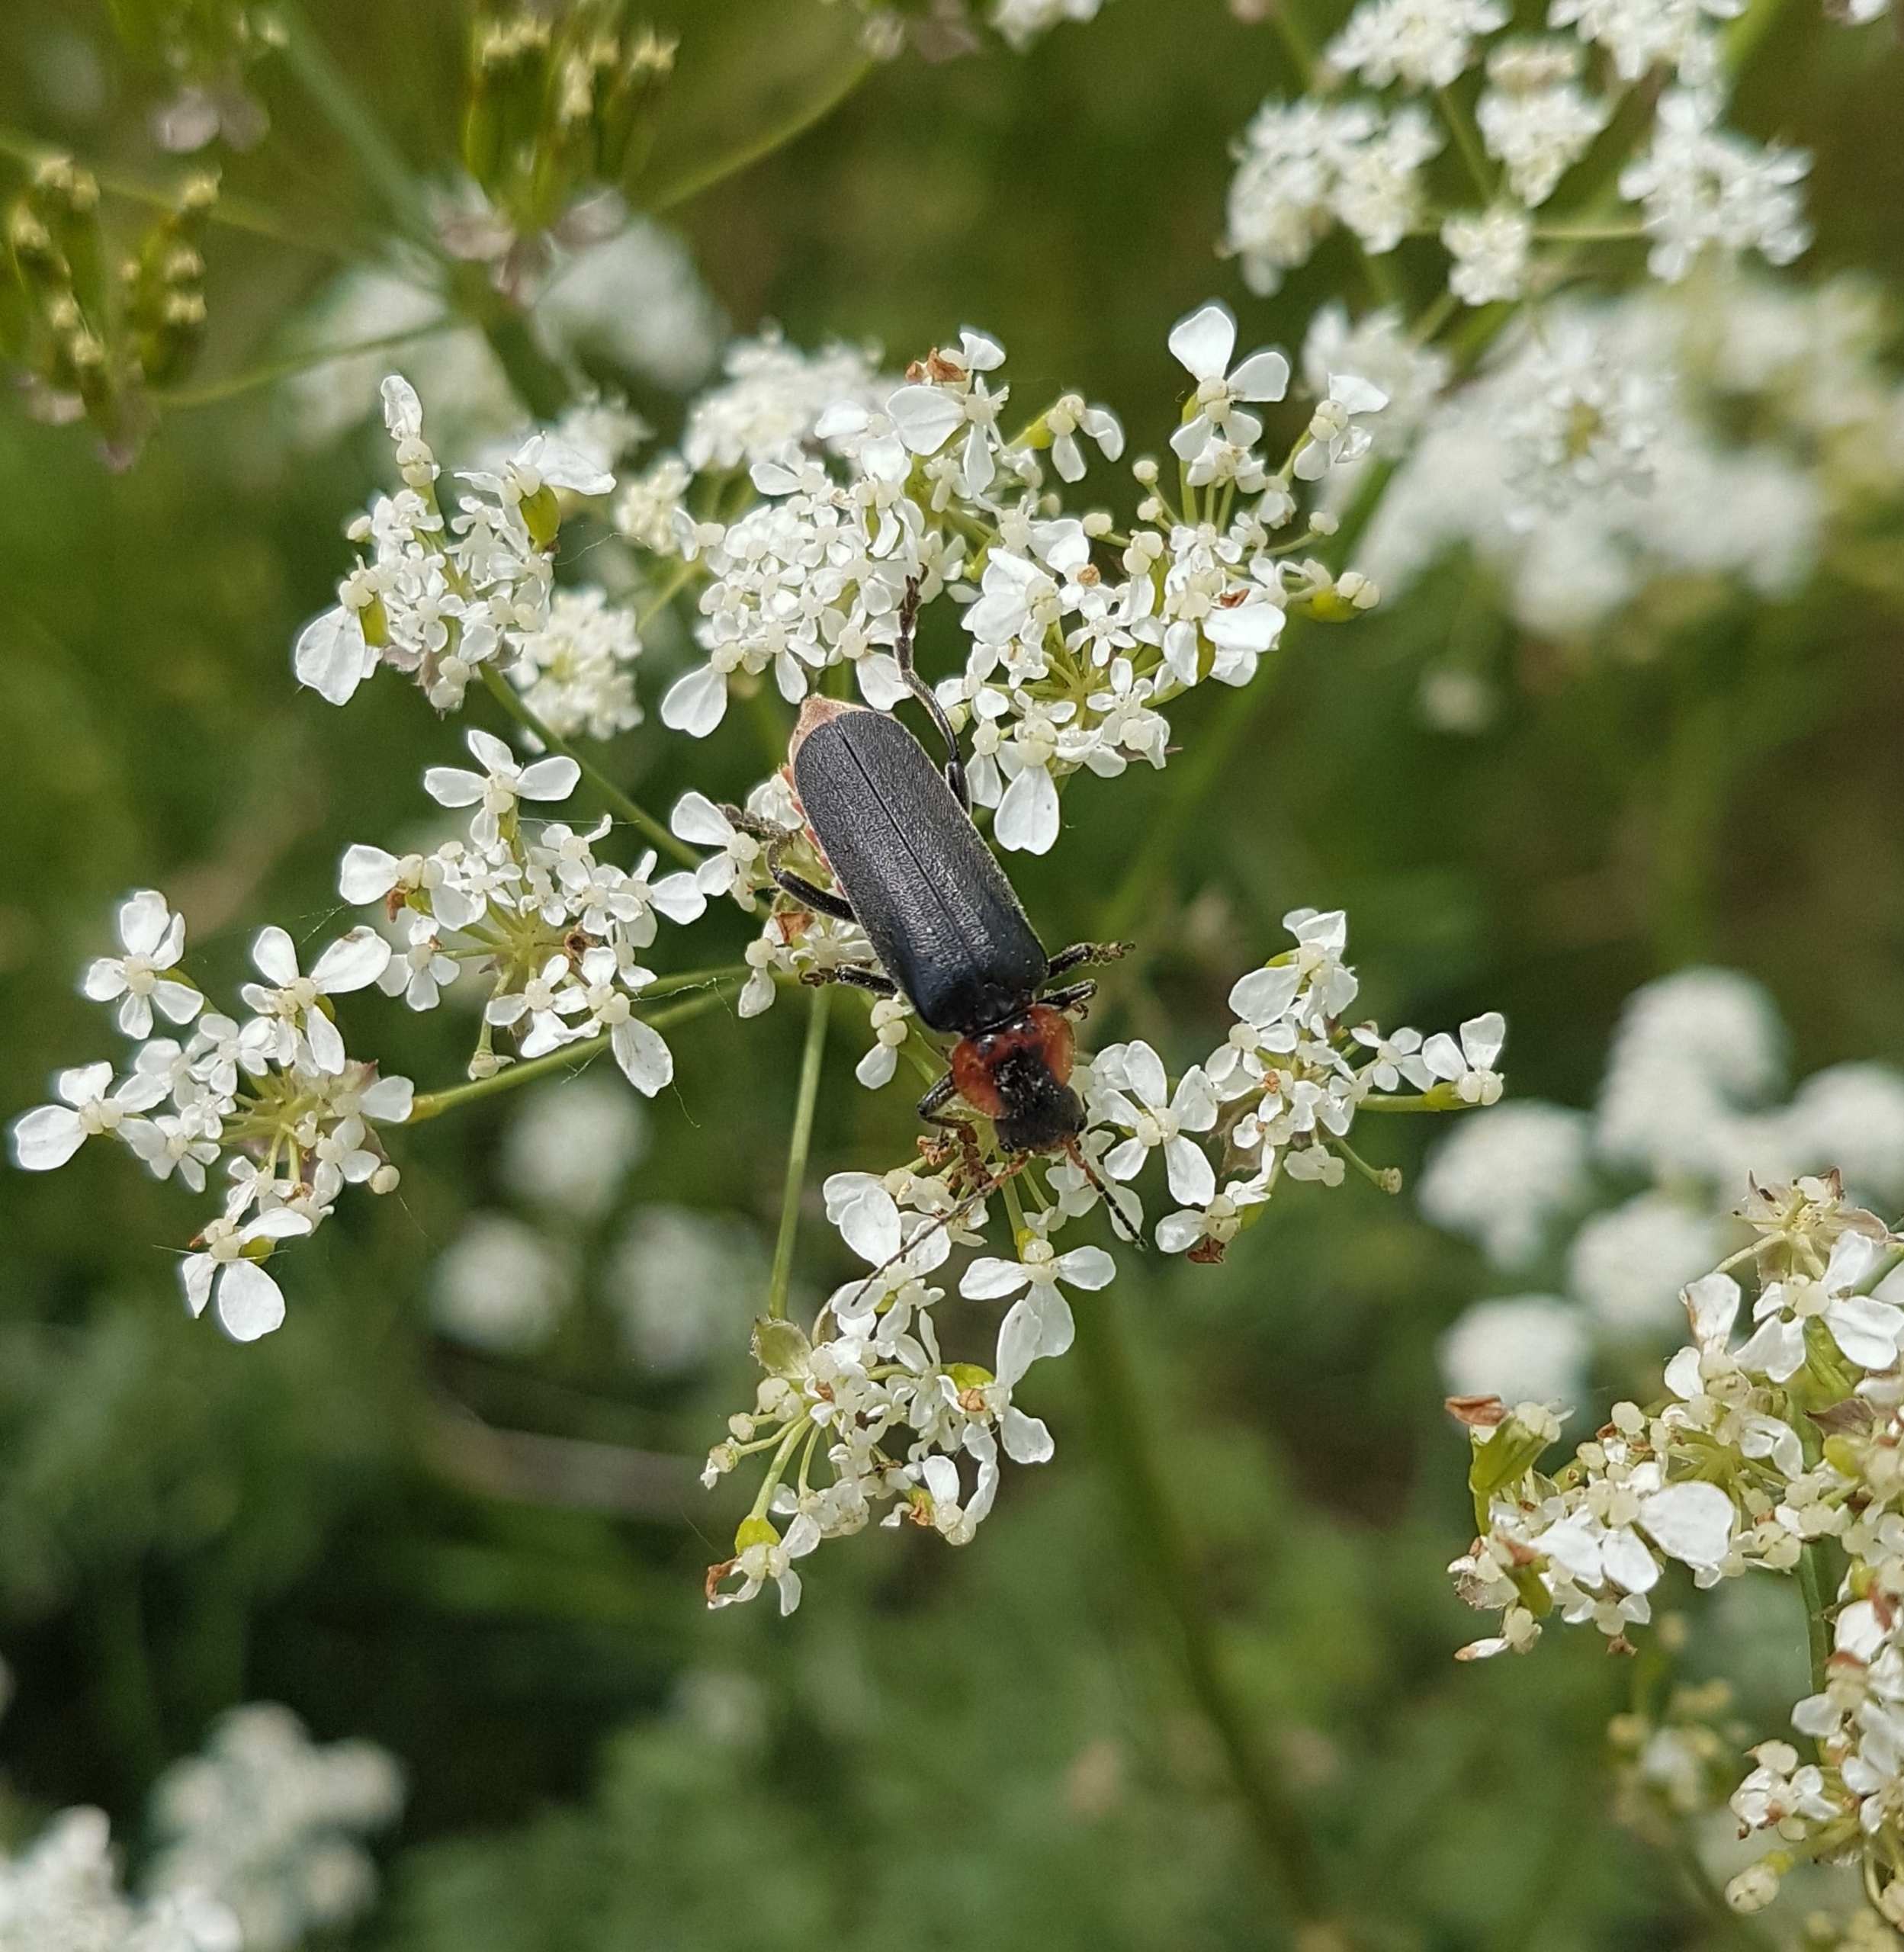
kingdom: Animalia
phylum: Arthropoda
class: Insecta
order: Coleoptera
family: Cantharidae
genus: Cantharis
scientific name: Cantharis fusca
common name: Stor blødvinge
